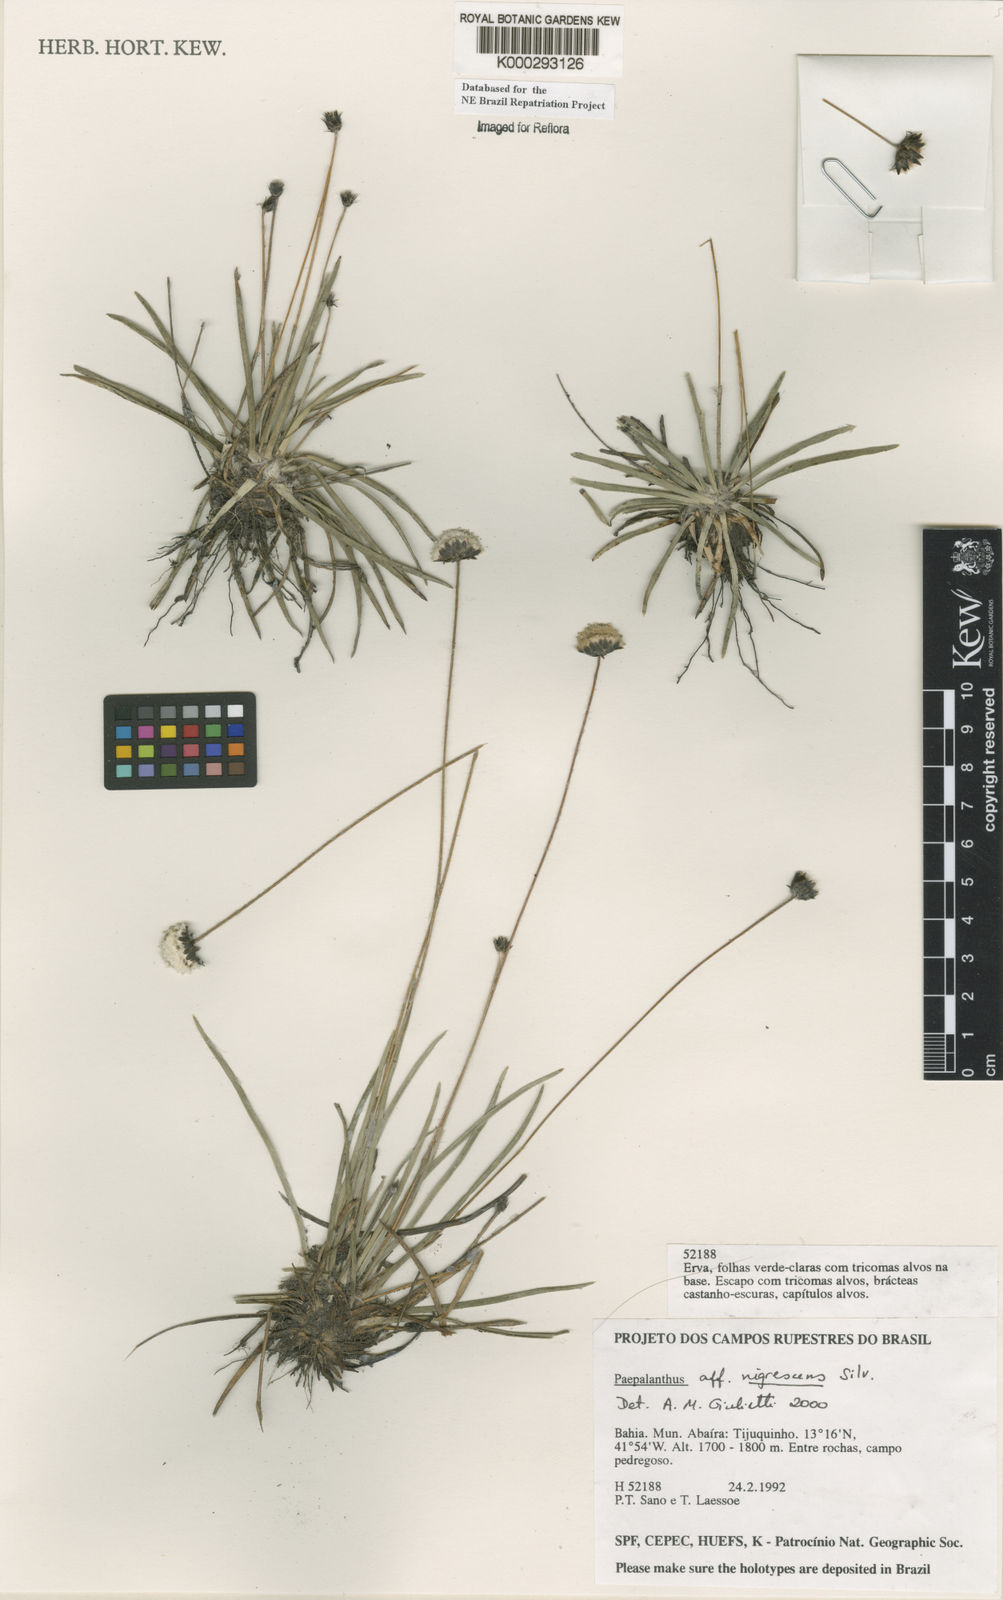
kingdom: Plantae
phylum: Tracheophyta
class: Liliopsida
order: Poales
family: Eriocaulaceae
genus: Paepalanthus
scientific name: Paepalanthus nigrescens
